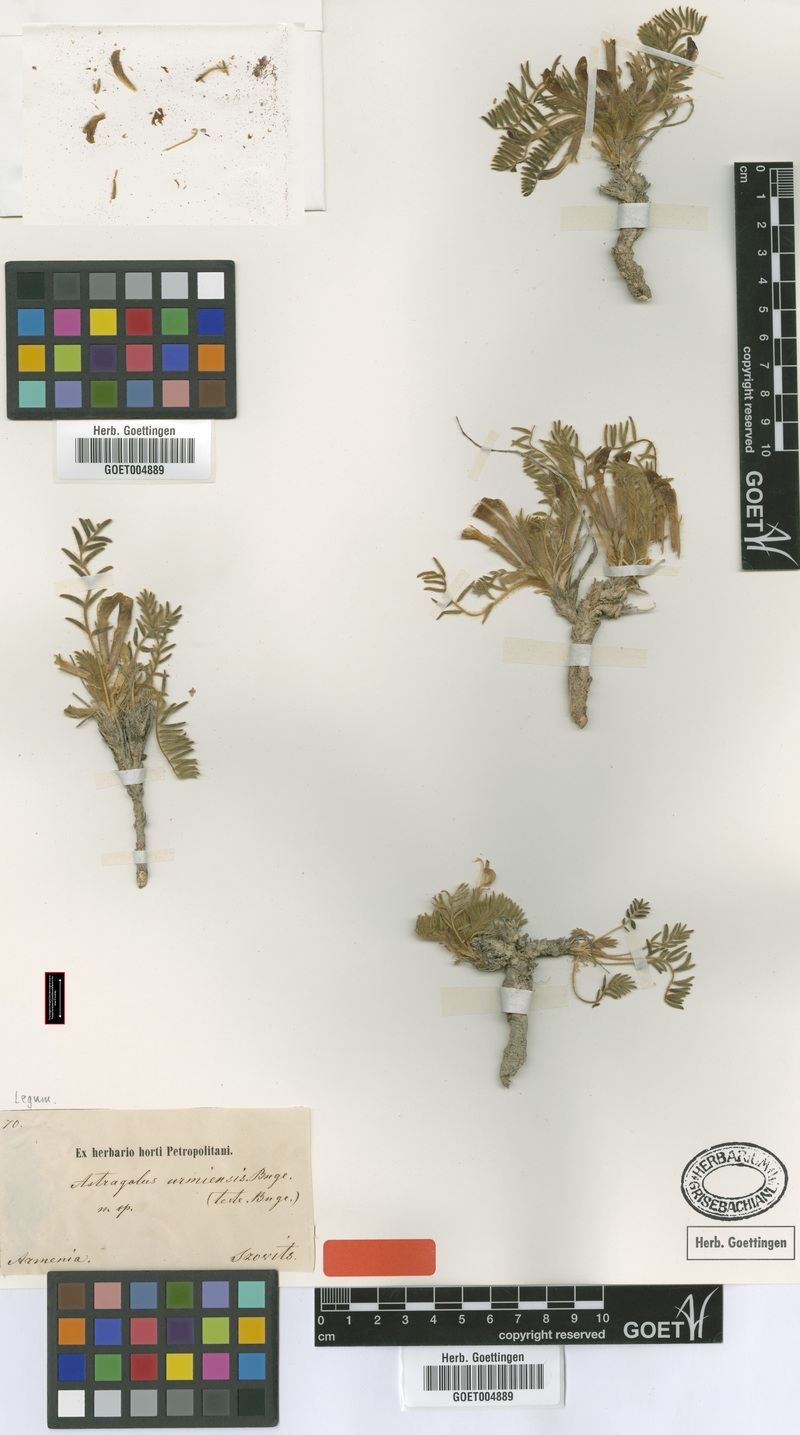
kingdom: Plantae
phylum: Tracheophyta
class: Magnoliopsida
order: Fabales
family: Fabaceae
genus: Astragalus
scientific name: Astragalus urmiensis
